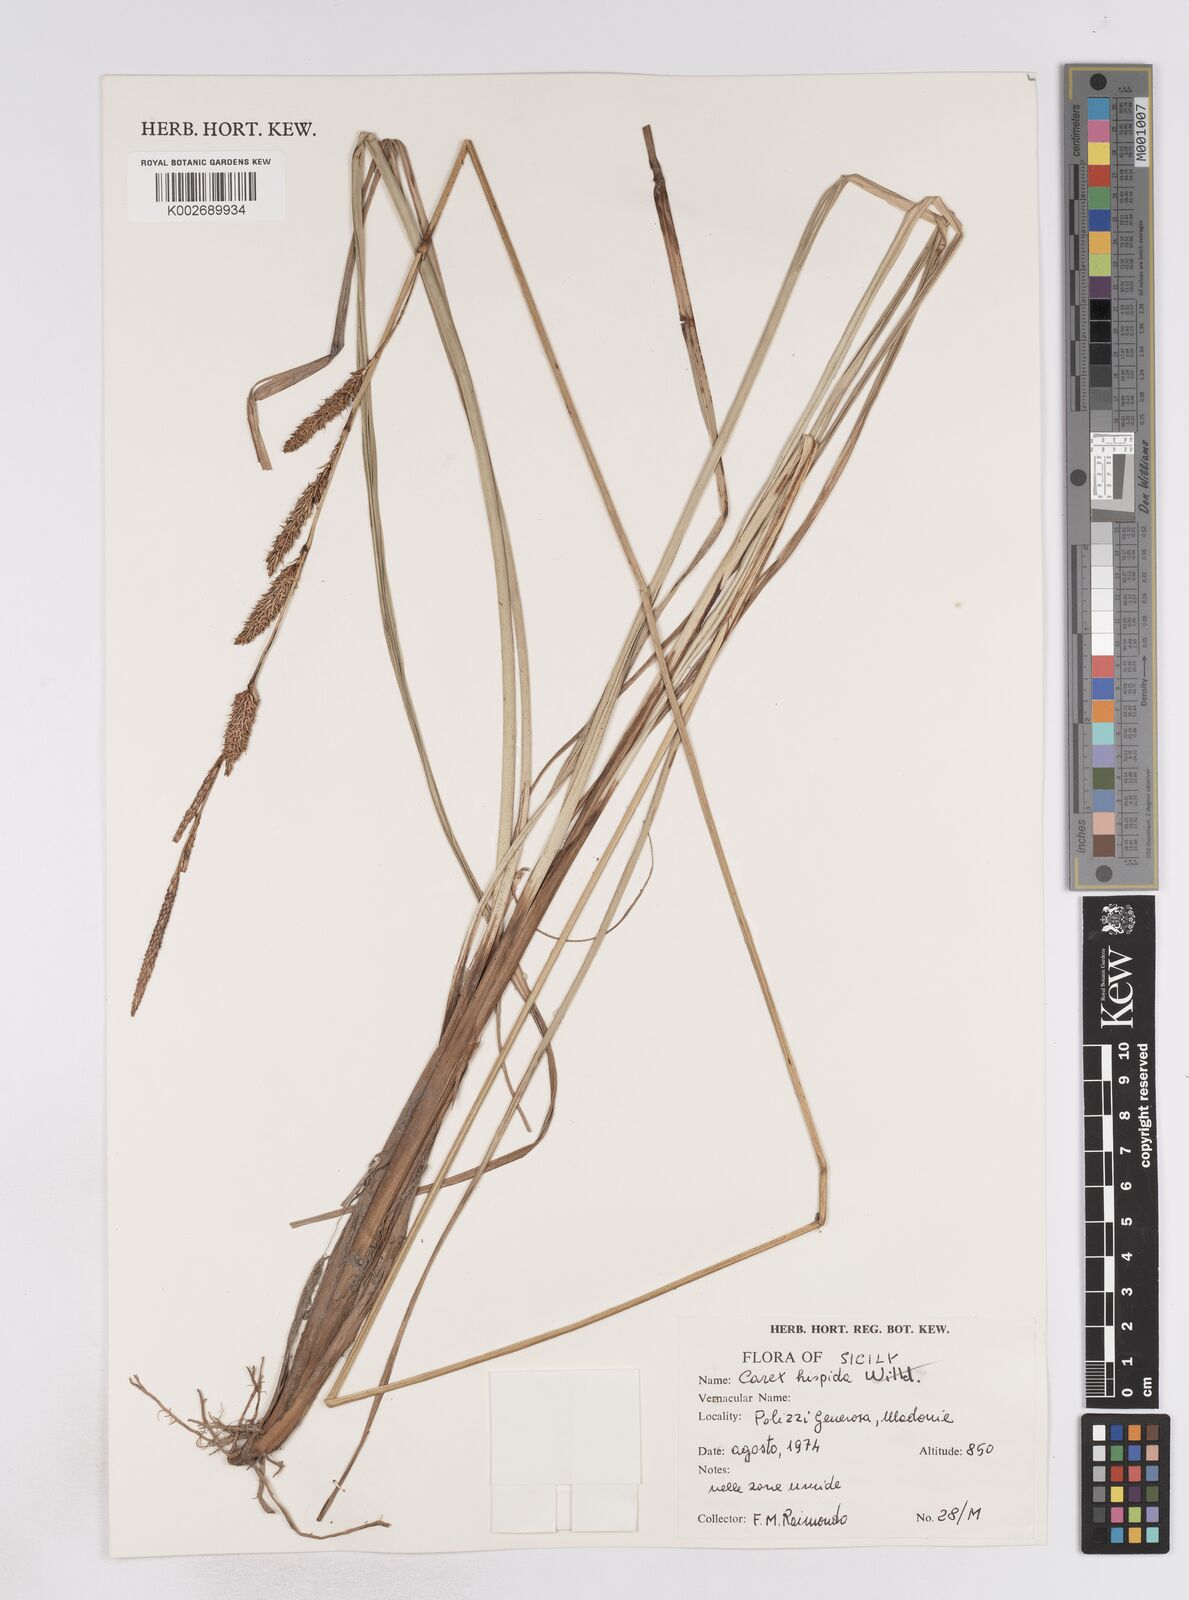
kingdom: Plantae
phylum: Tracheophyta
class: Liliopsida
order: Poales
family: Cyperaceae
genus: Carex
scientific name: Carex hispida
